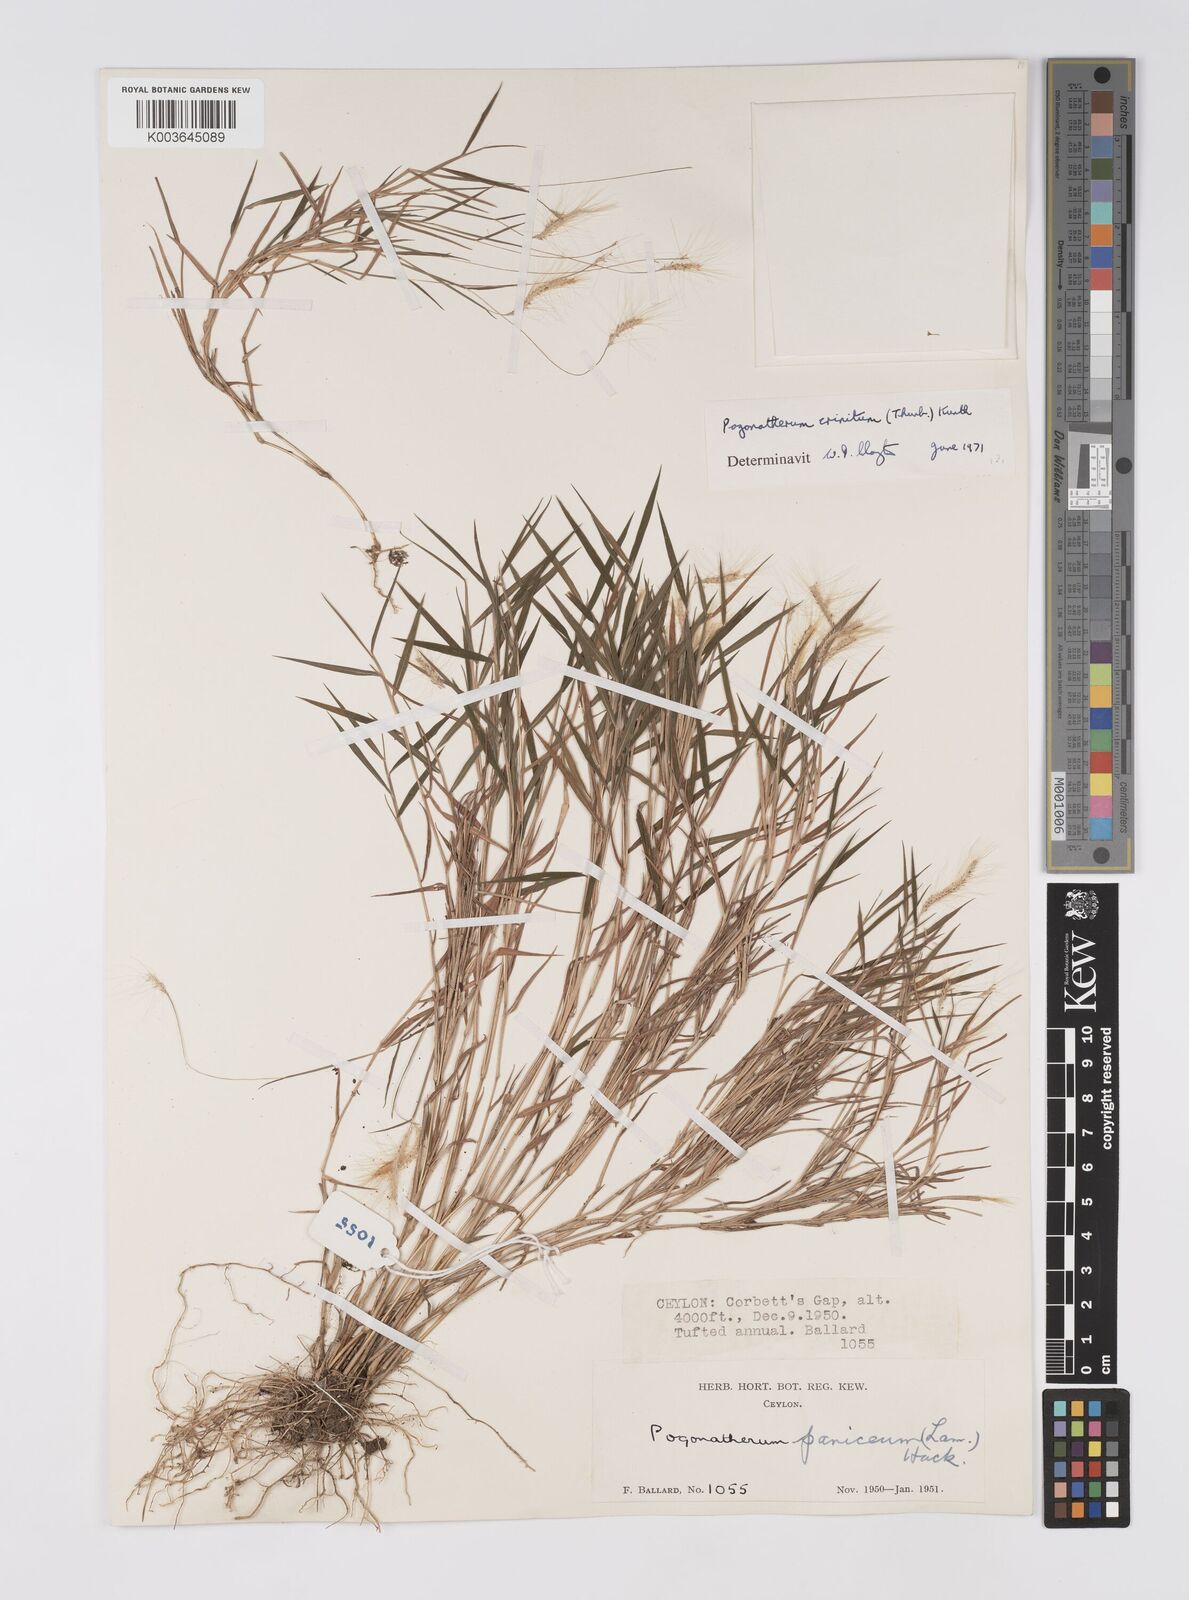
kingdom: Plantae
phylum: Tracheophyta
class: Liliopsida
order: Poales
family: Poaceae
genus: Pogonatherum
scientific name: Pogonatherum crinitum
